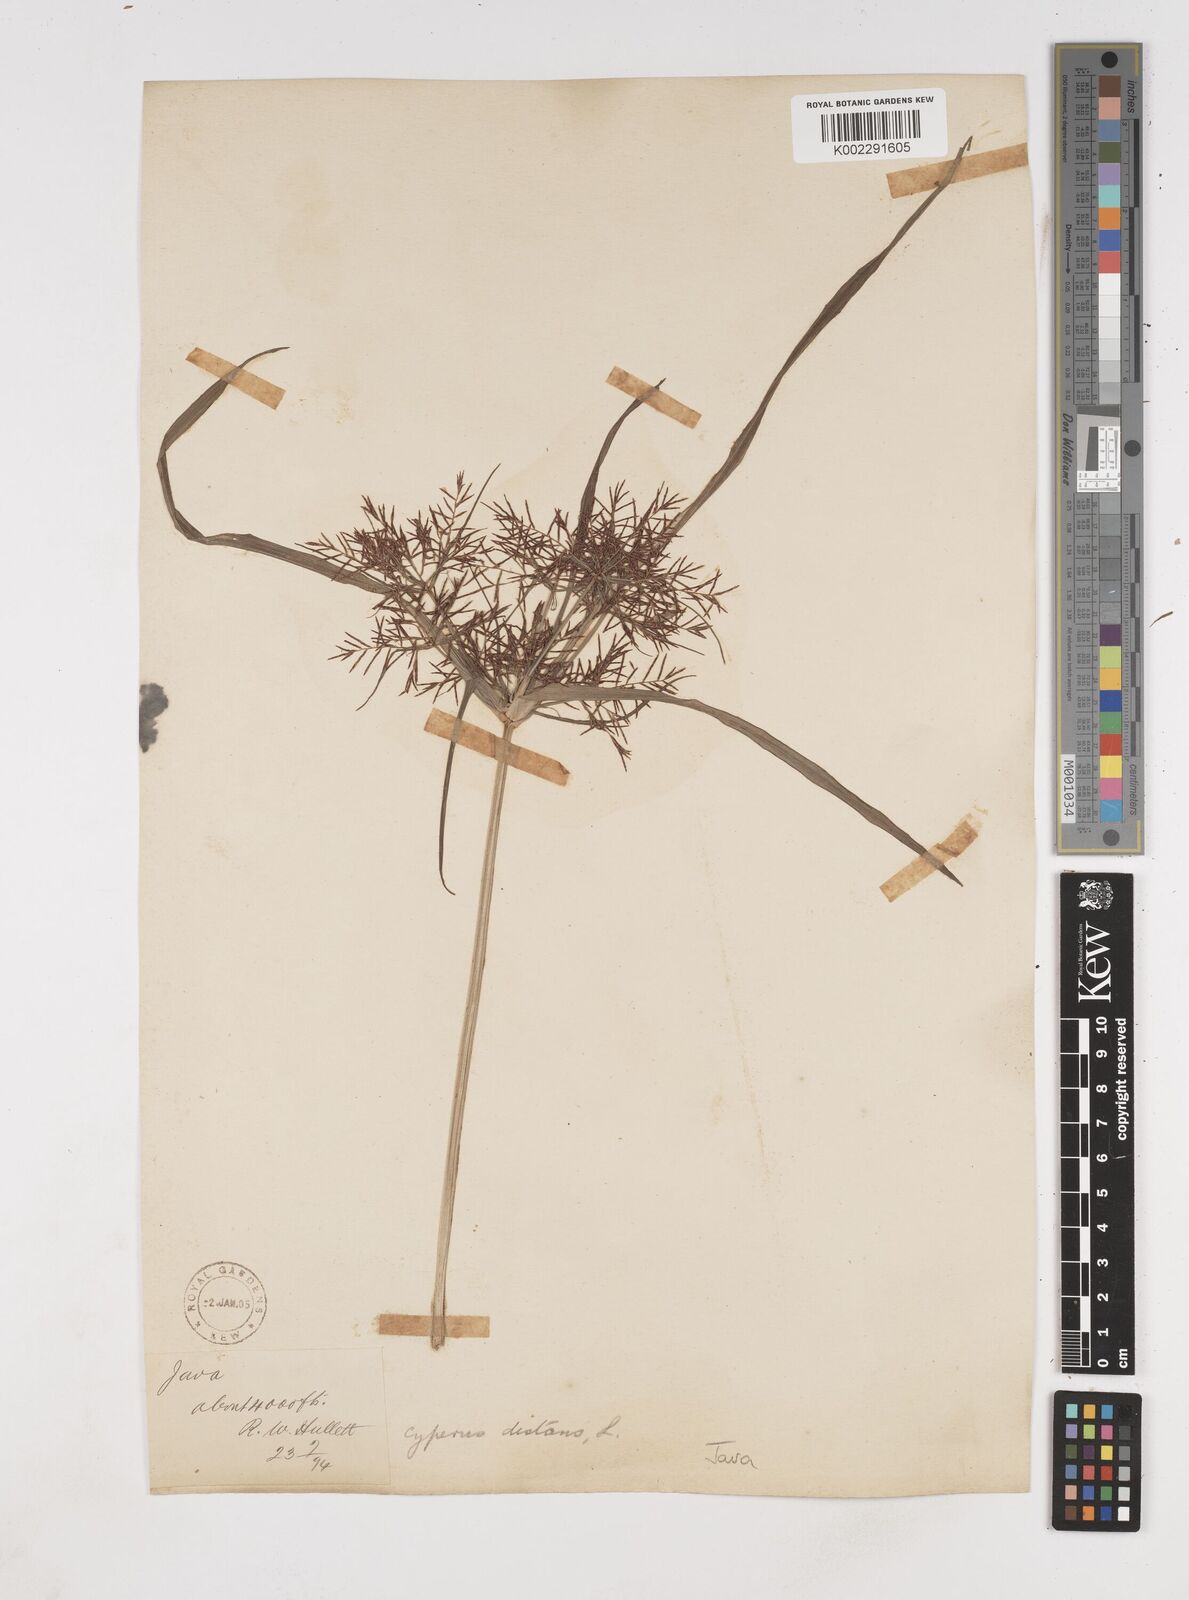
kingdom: Plantae
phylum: Tracheophyta
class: Liliopsida
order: Poales
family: Cyperaceae
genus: Cyperus
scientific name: Cyperus distans
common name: Slender cyperus
